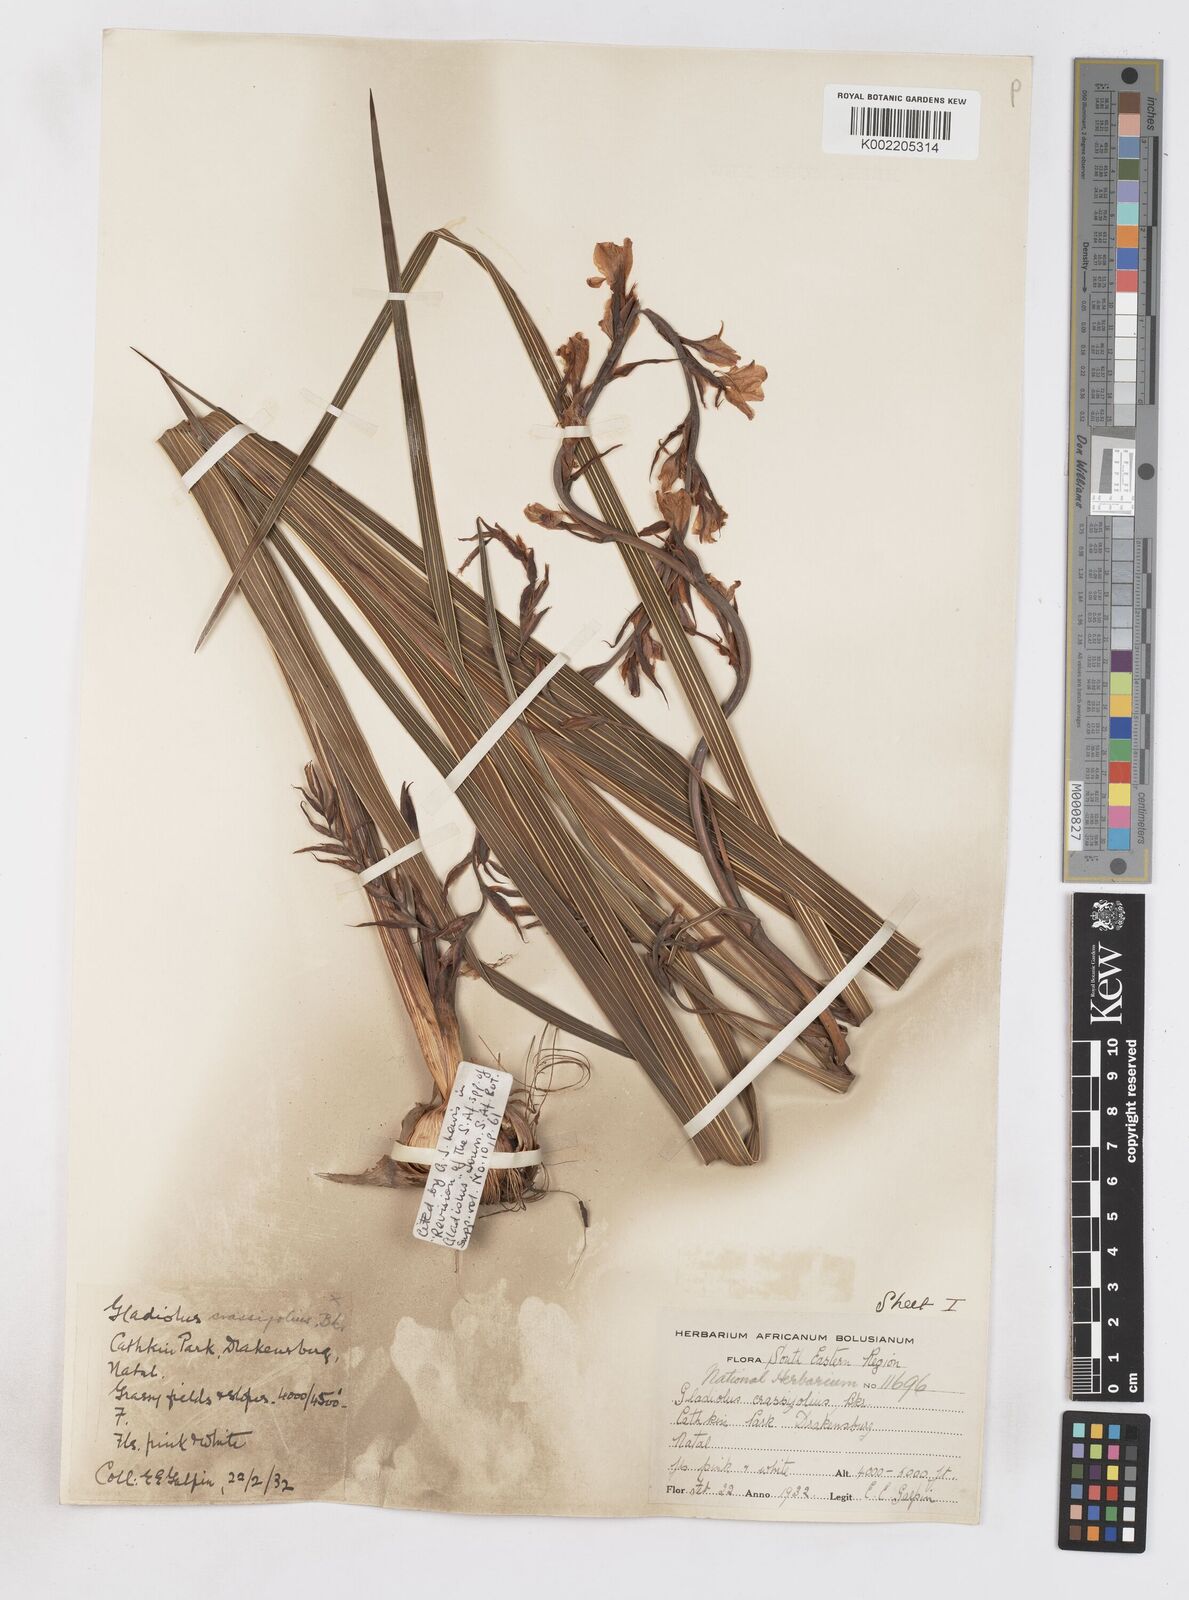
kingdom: Plantae
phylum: Tracheophyta
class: Liliopsida
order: Asparagales
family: Iridaceae
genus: Gladiolus
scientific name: Gladiolus crassifolius
